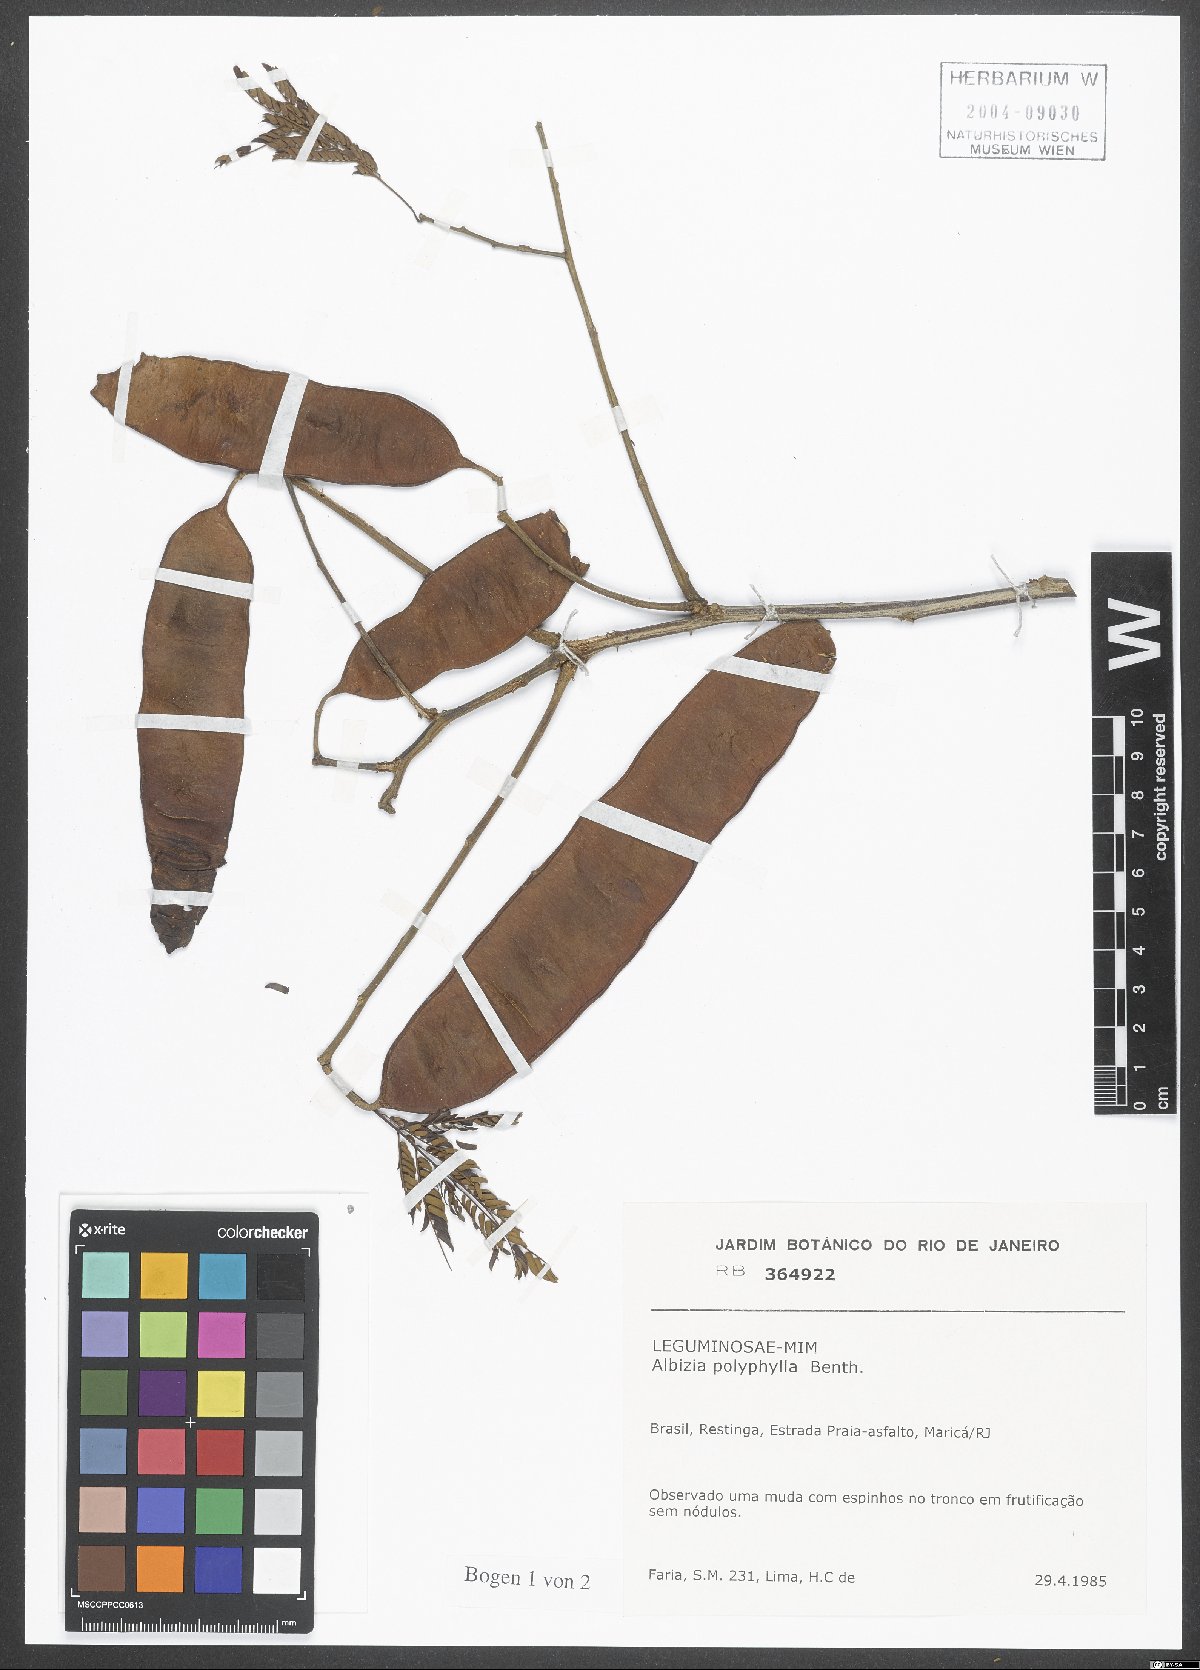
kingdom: Plantae
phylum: Tracheophyta
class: Magnoliopsida
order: Fabales
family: Fabaceae
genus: Albizia
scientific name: Albizia polyphylla
